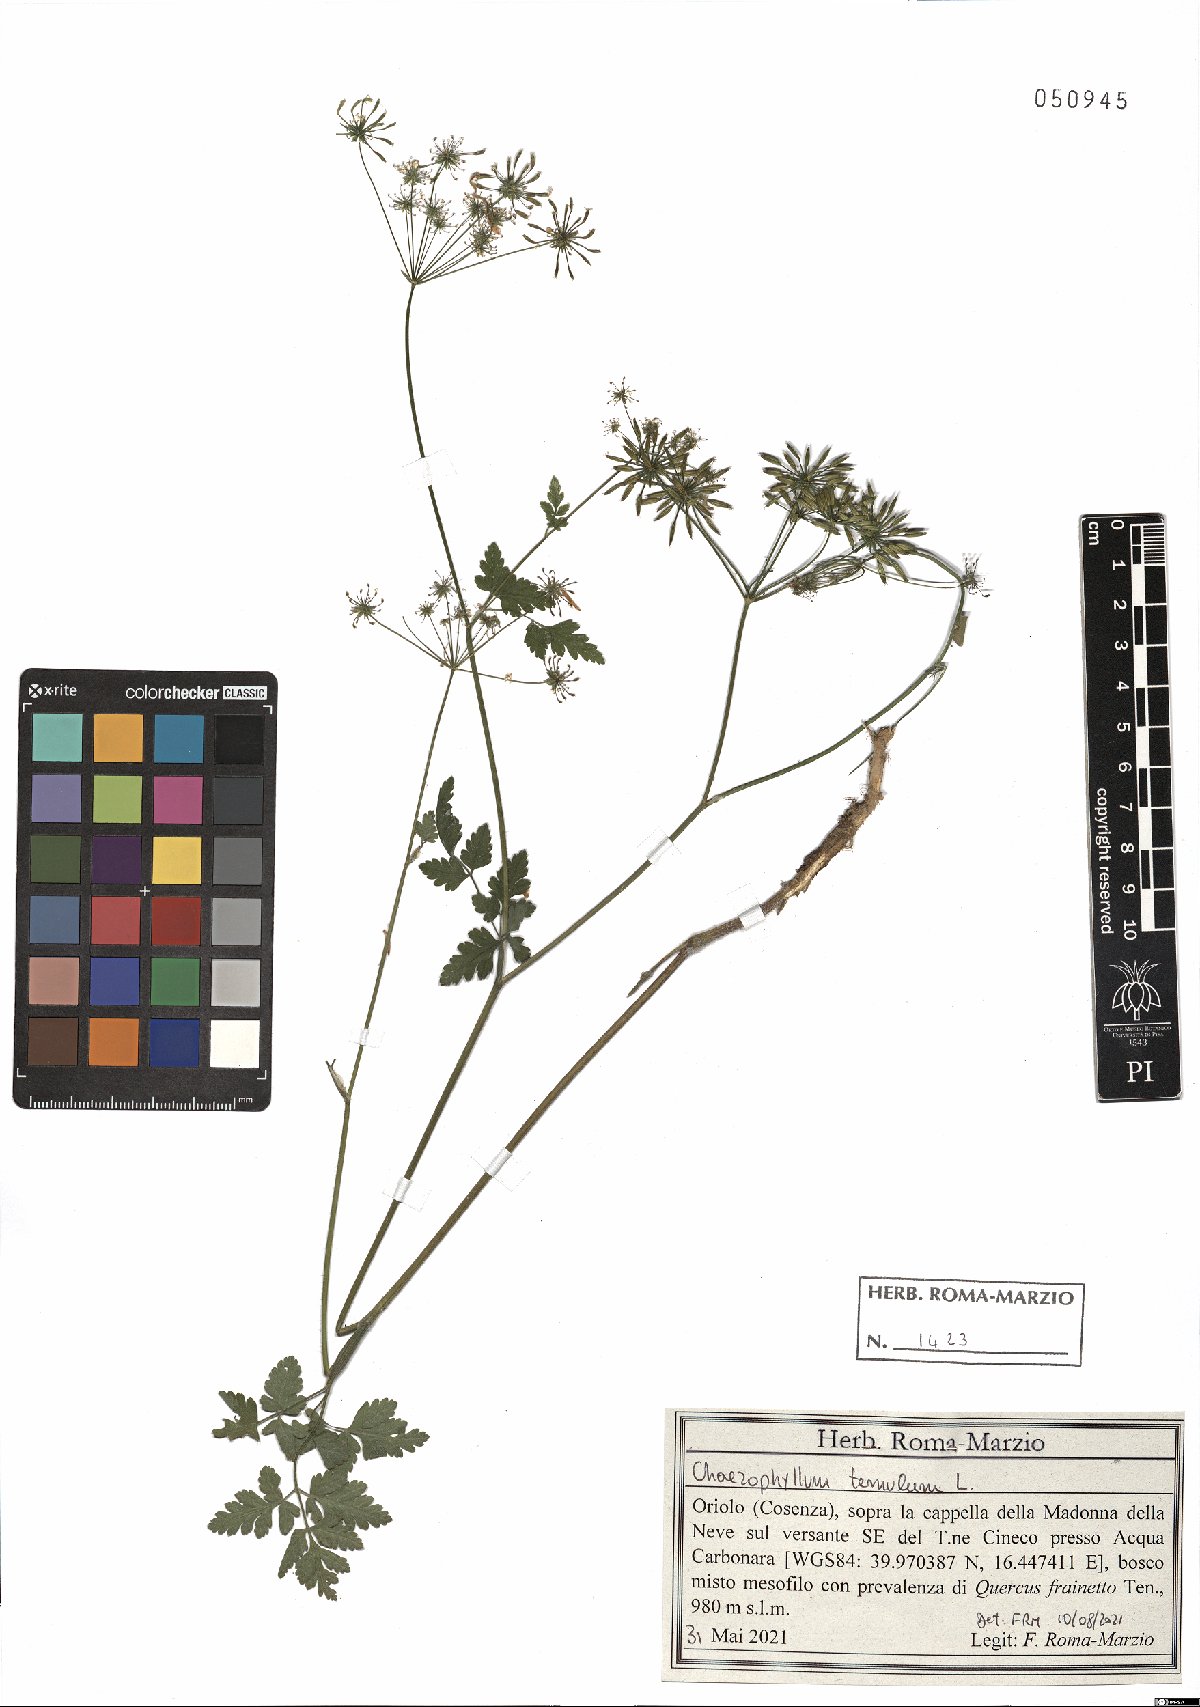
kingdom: Plantae
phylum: Tracheophyta
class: Magnoliopsida
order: Apiales
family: Apiaceae
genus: Chaerophyllum
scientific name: Chaerophyllum temulum
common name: Rough chervil
